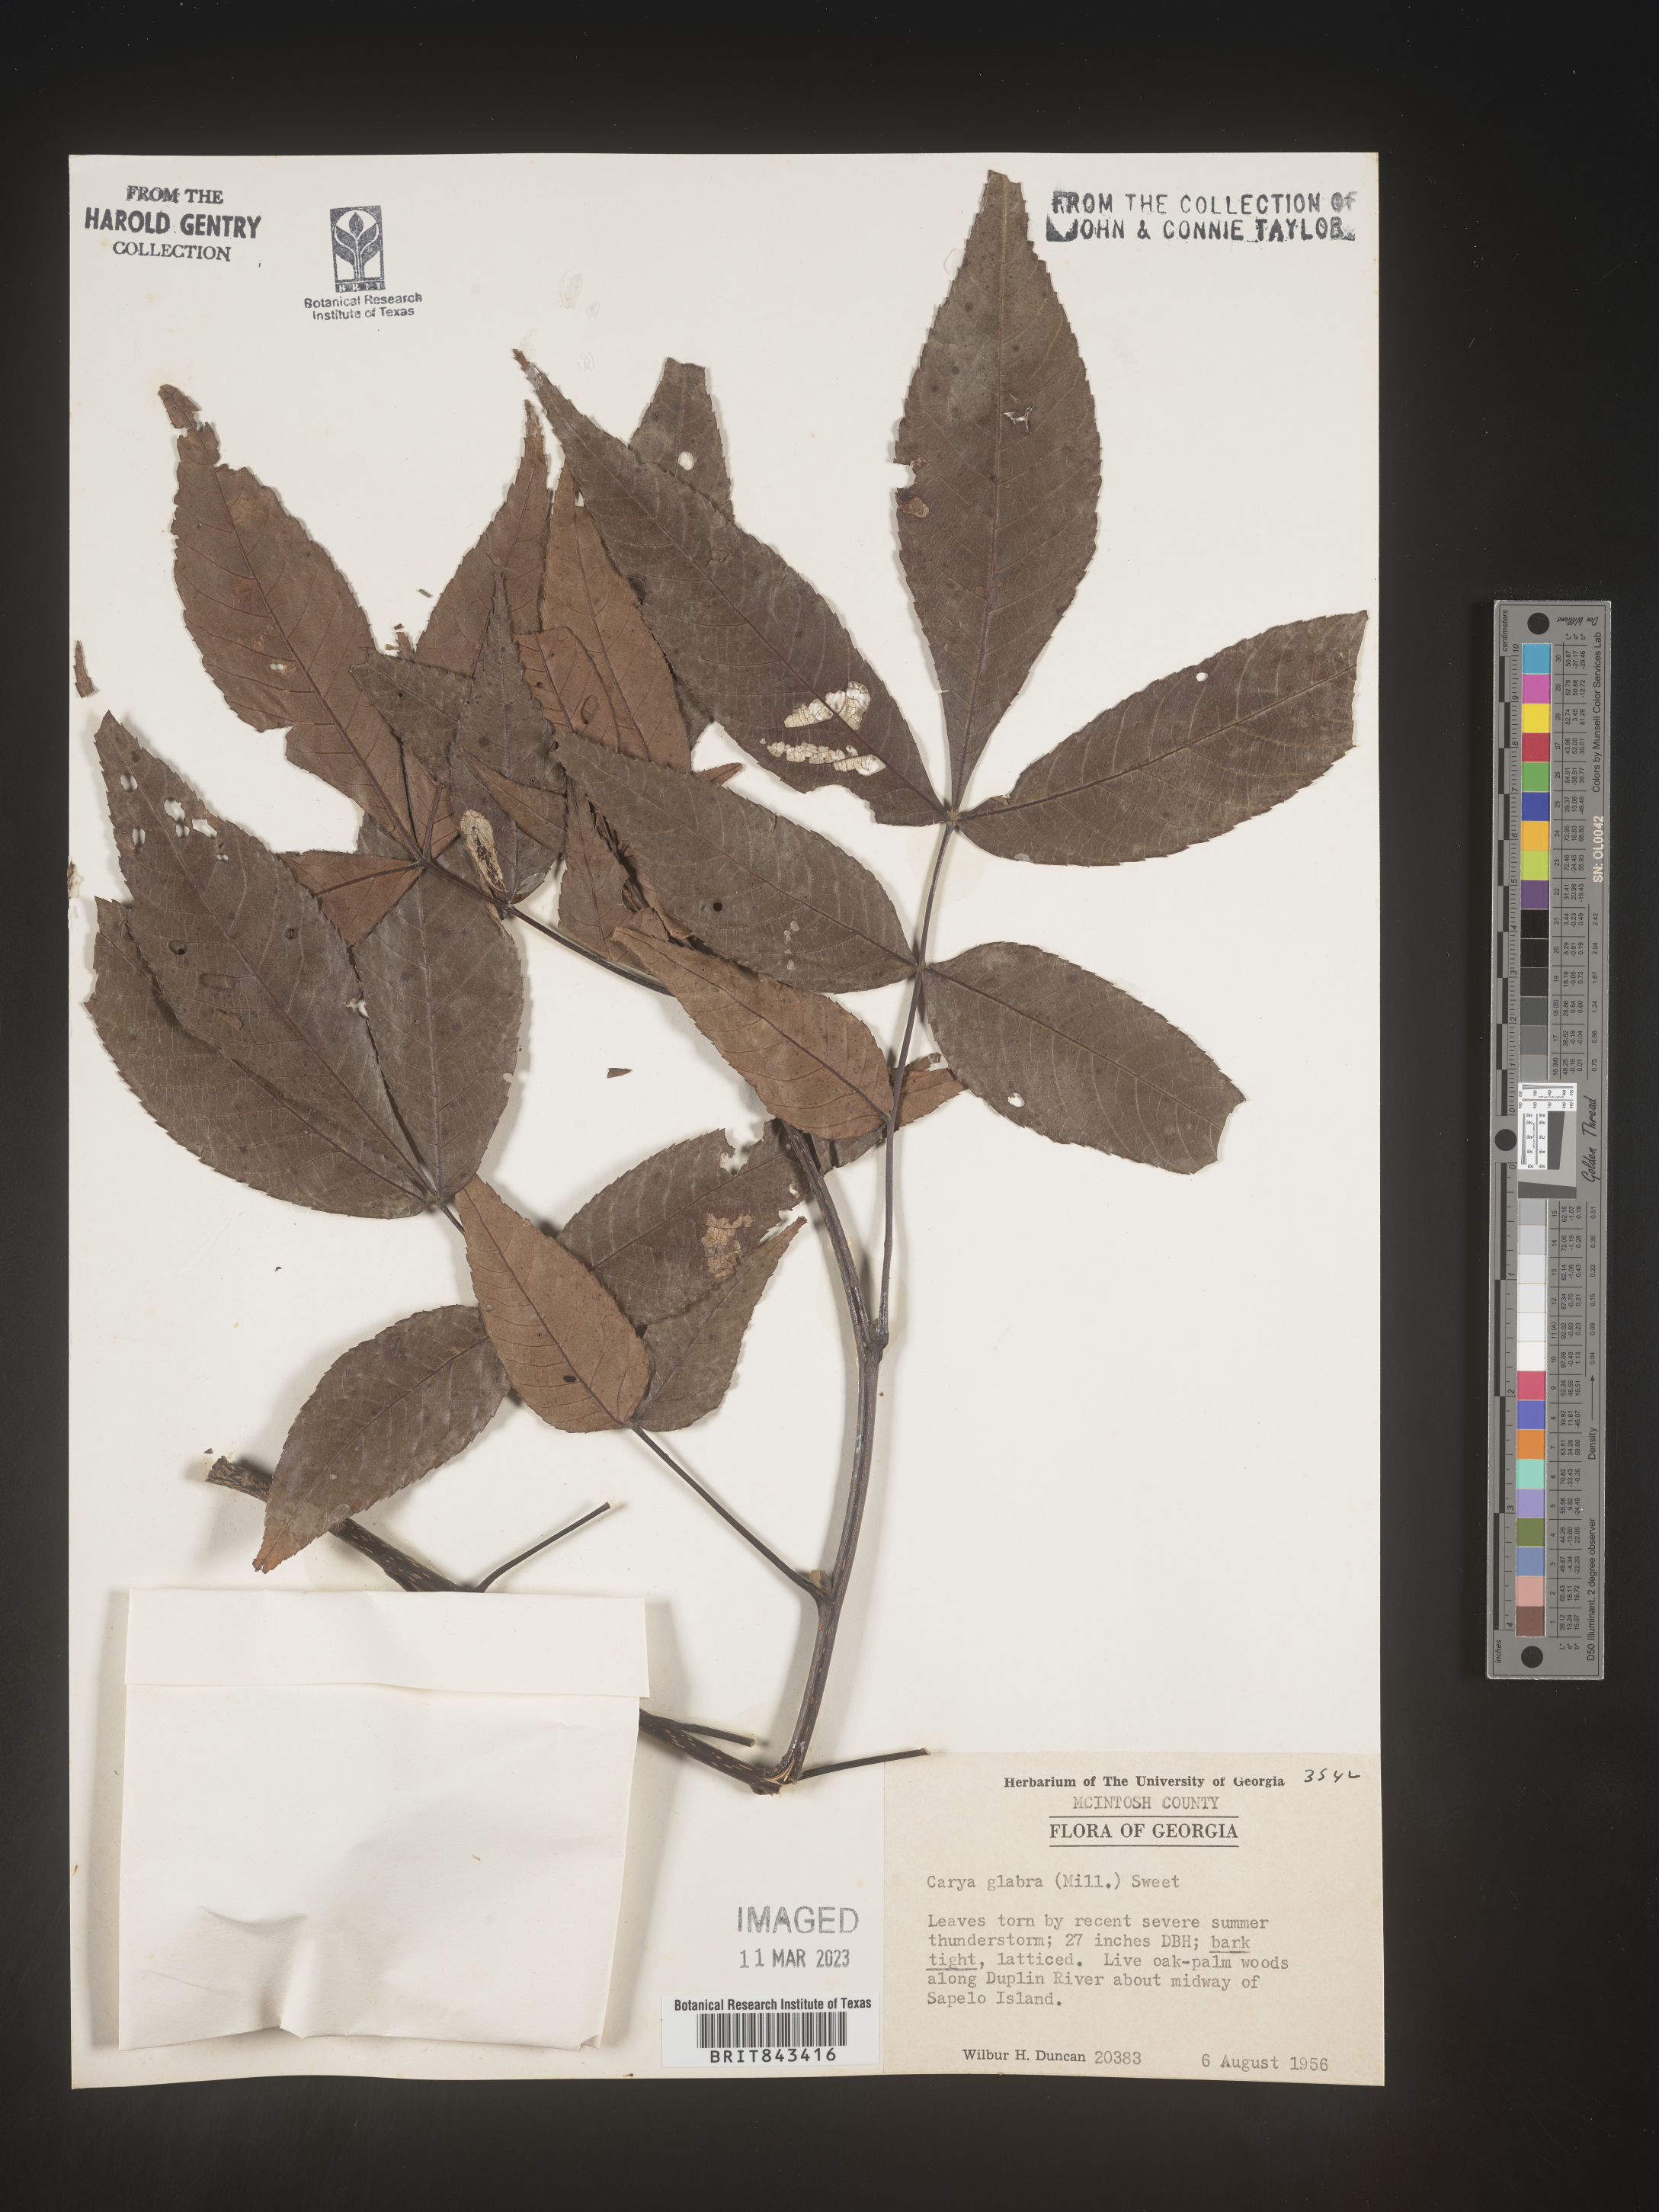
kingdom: Plantae
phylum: Tracheophyta
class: Magnoliopsida
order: Fagales
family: Juglandaceae
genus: Carya
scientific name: Carya glabra
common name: Pignut hickory
